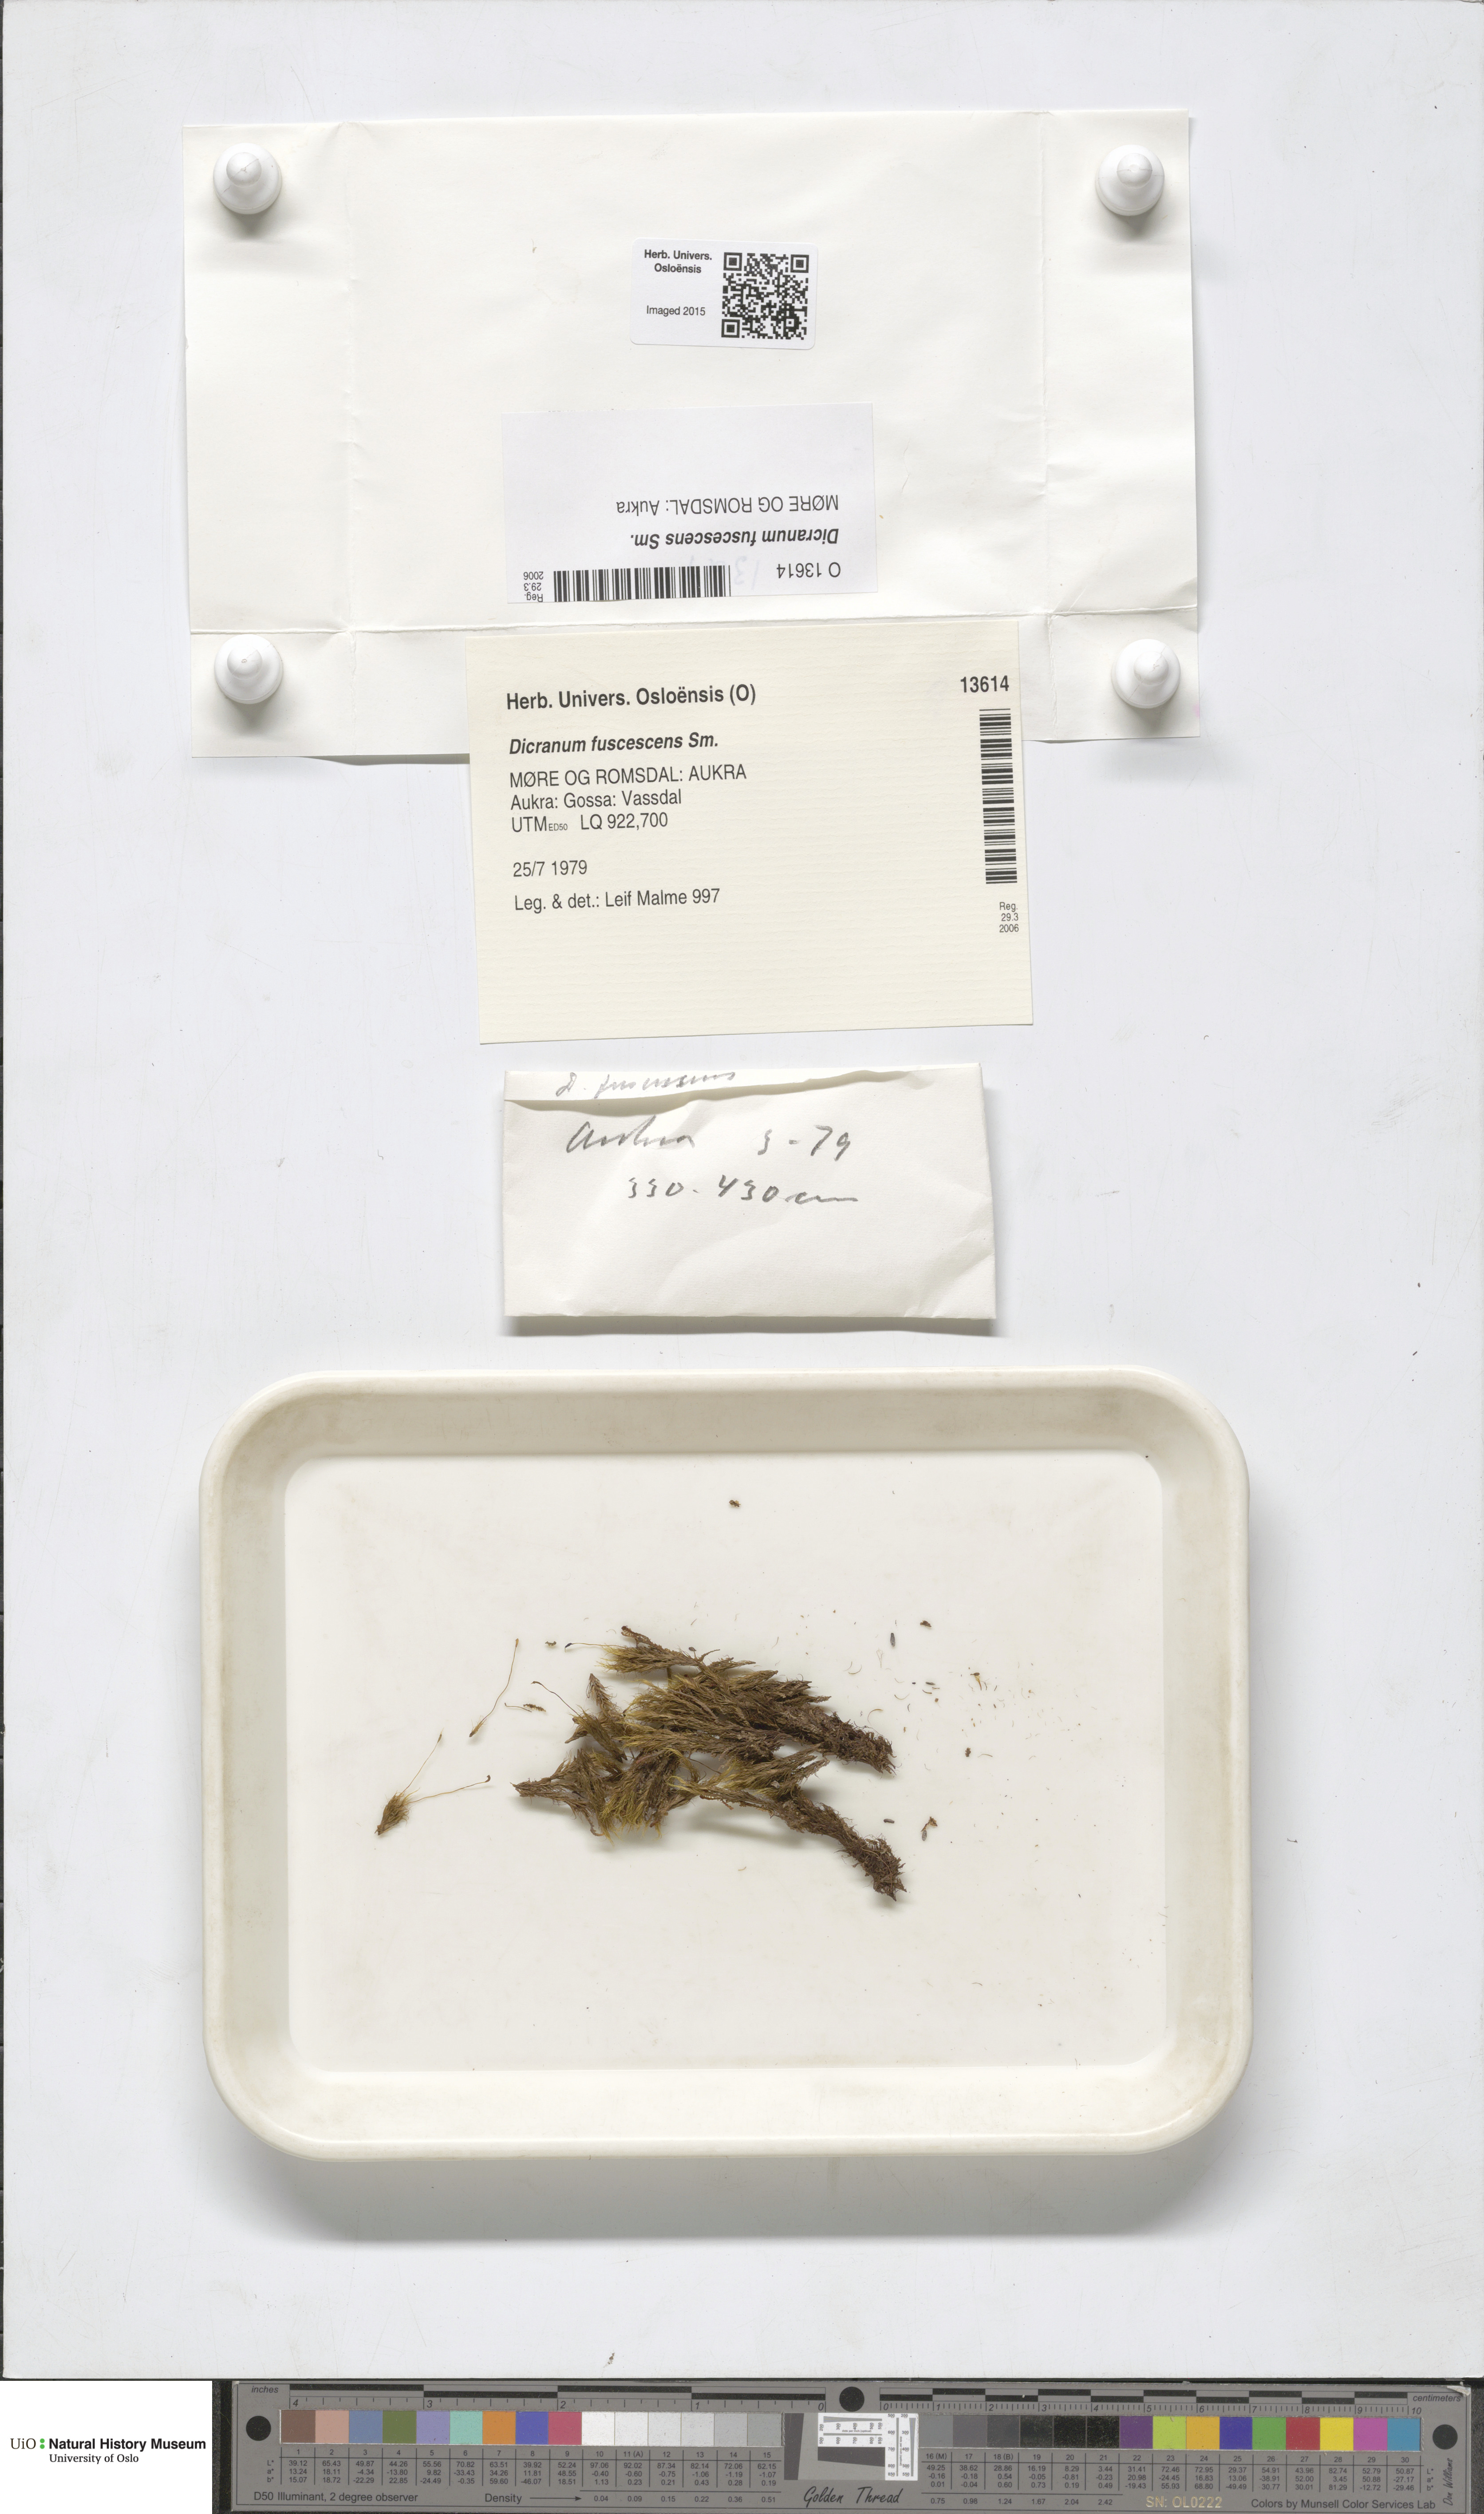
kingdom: Plantae
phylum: Bryophyta
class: Bryopsida
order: Dicranales
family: Dicranaceae
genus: Dicranum
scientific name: Dicranum fuscescens
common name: Curly heron's-bill moss
